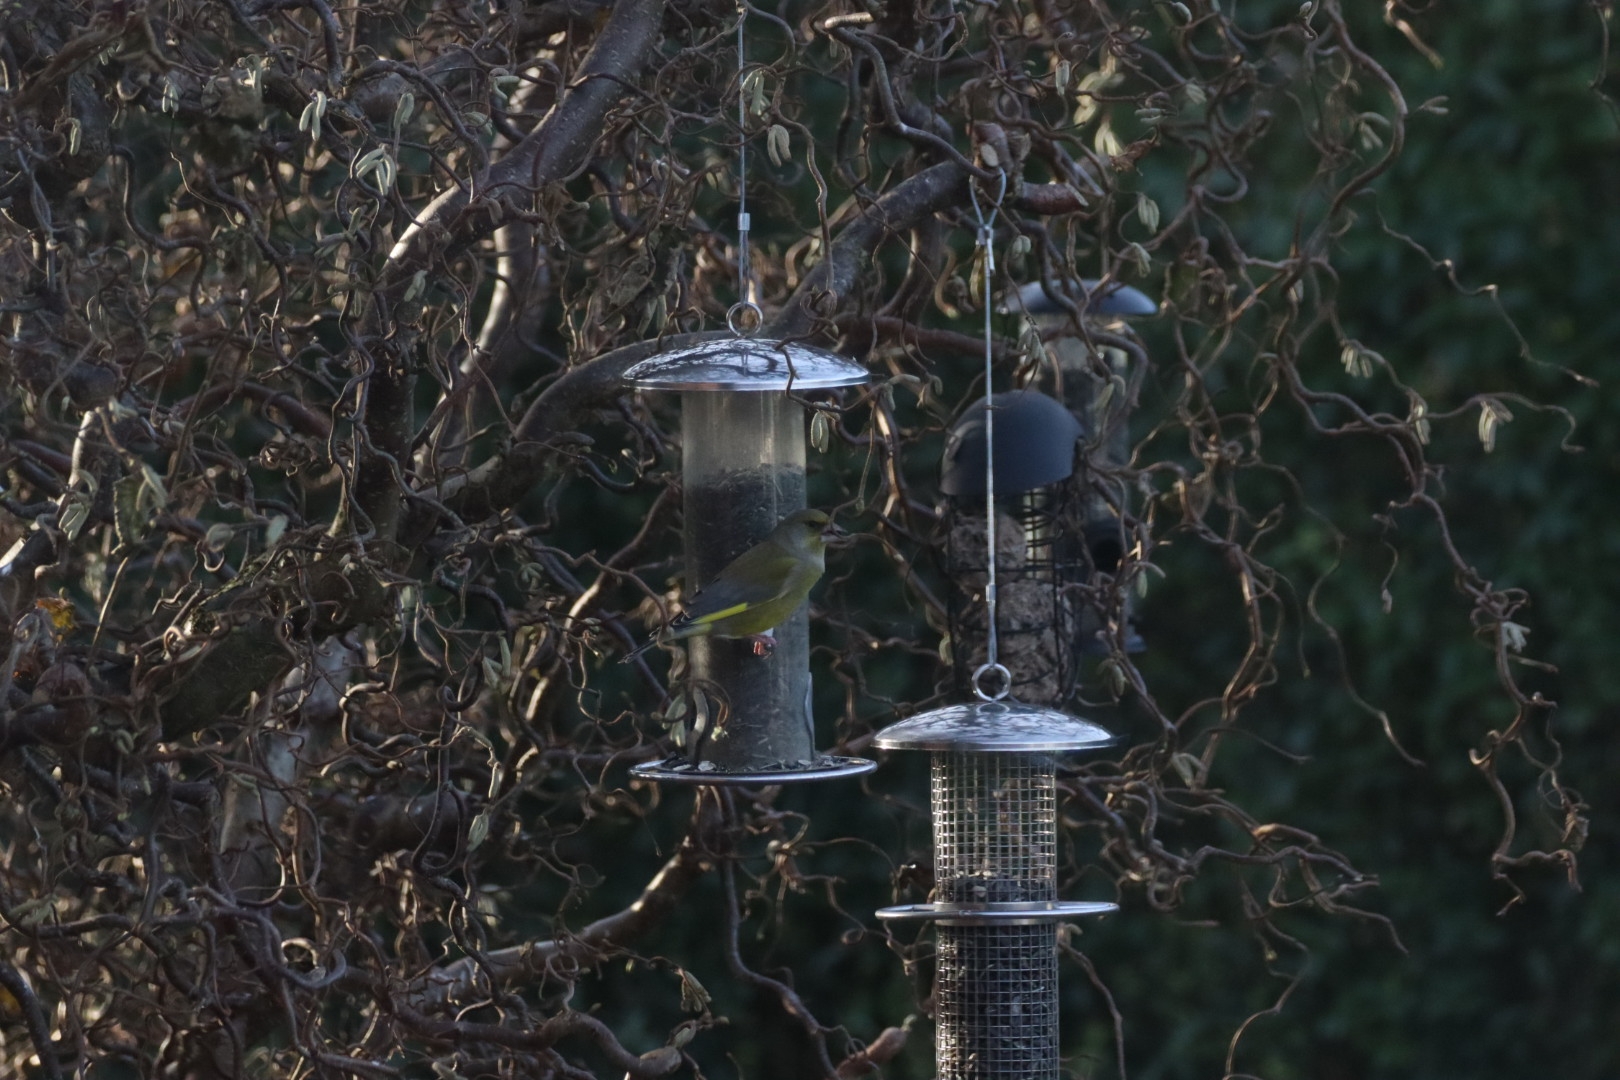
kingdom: Plantae
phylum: Tracheophyta
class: Liliopsida
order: Poales
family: Poaceae
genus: Chloris
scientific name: Chloris chloris
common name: Grønirisk
